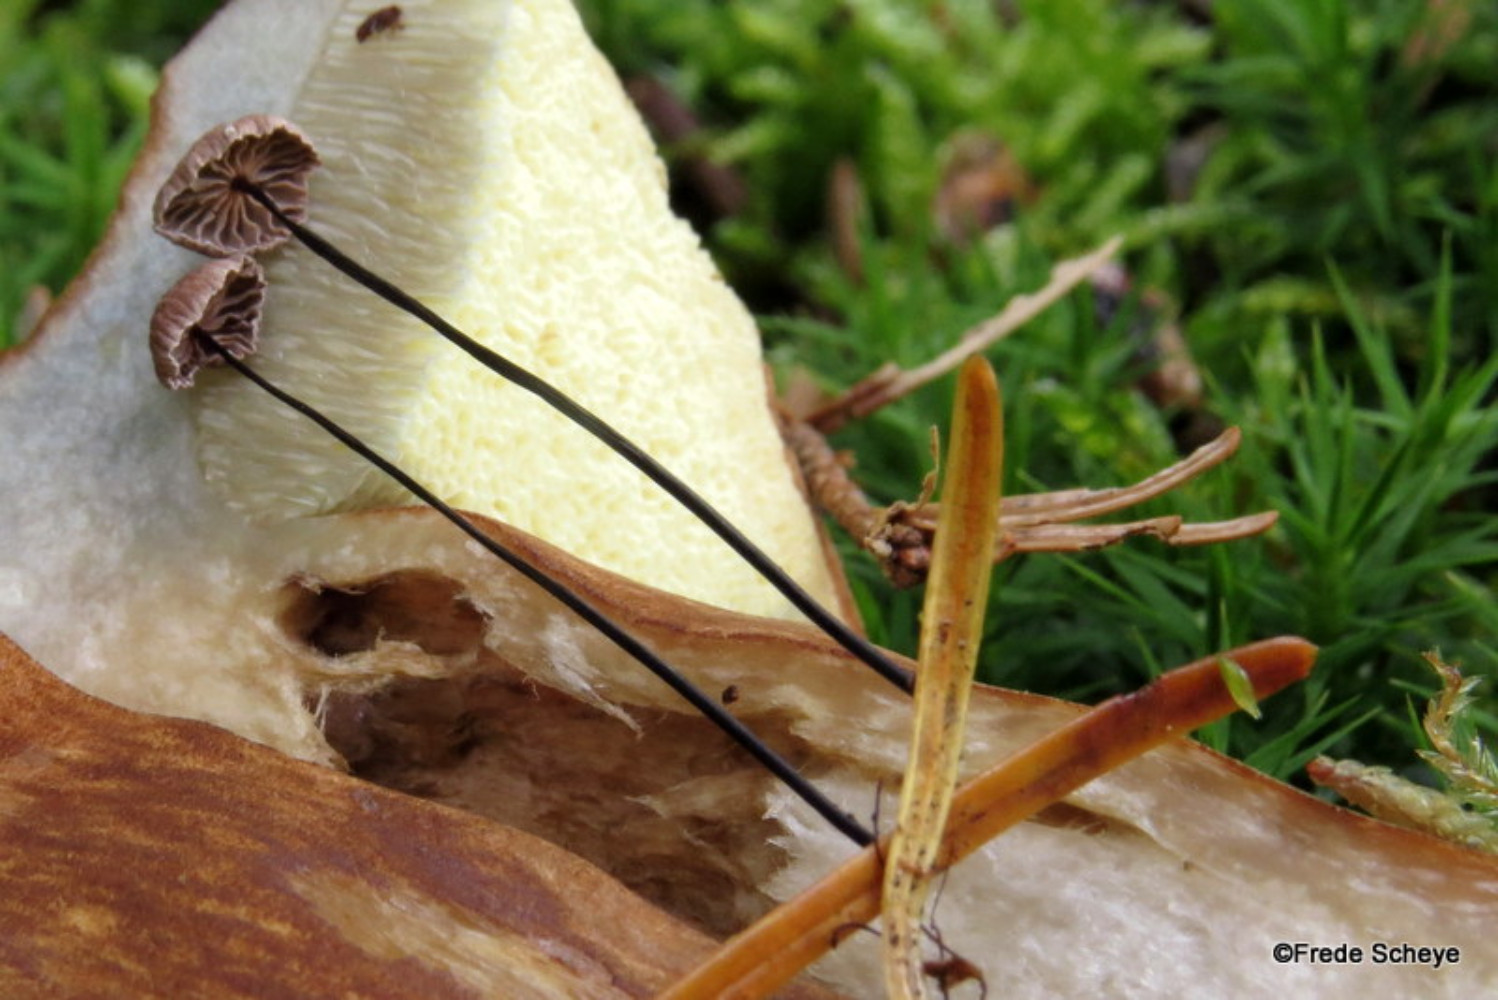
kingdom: Fungi
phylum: Basidiomycota
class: Agaricomycetes
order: Agaricales
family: Omphalotaceae
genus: Gymnopus
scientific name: Gymnopus androsaceus
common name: trådstokket fladhat
